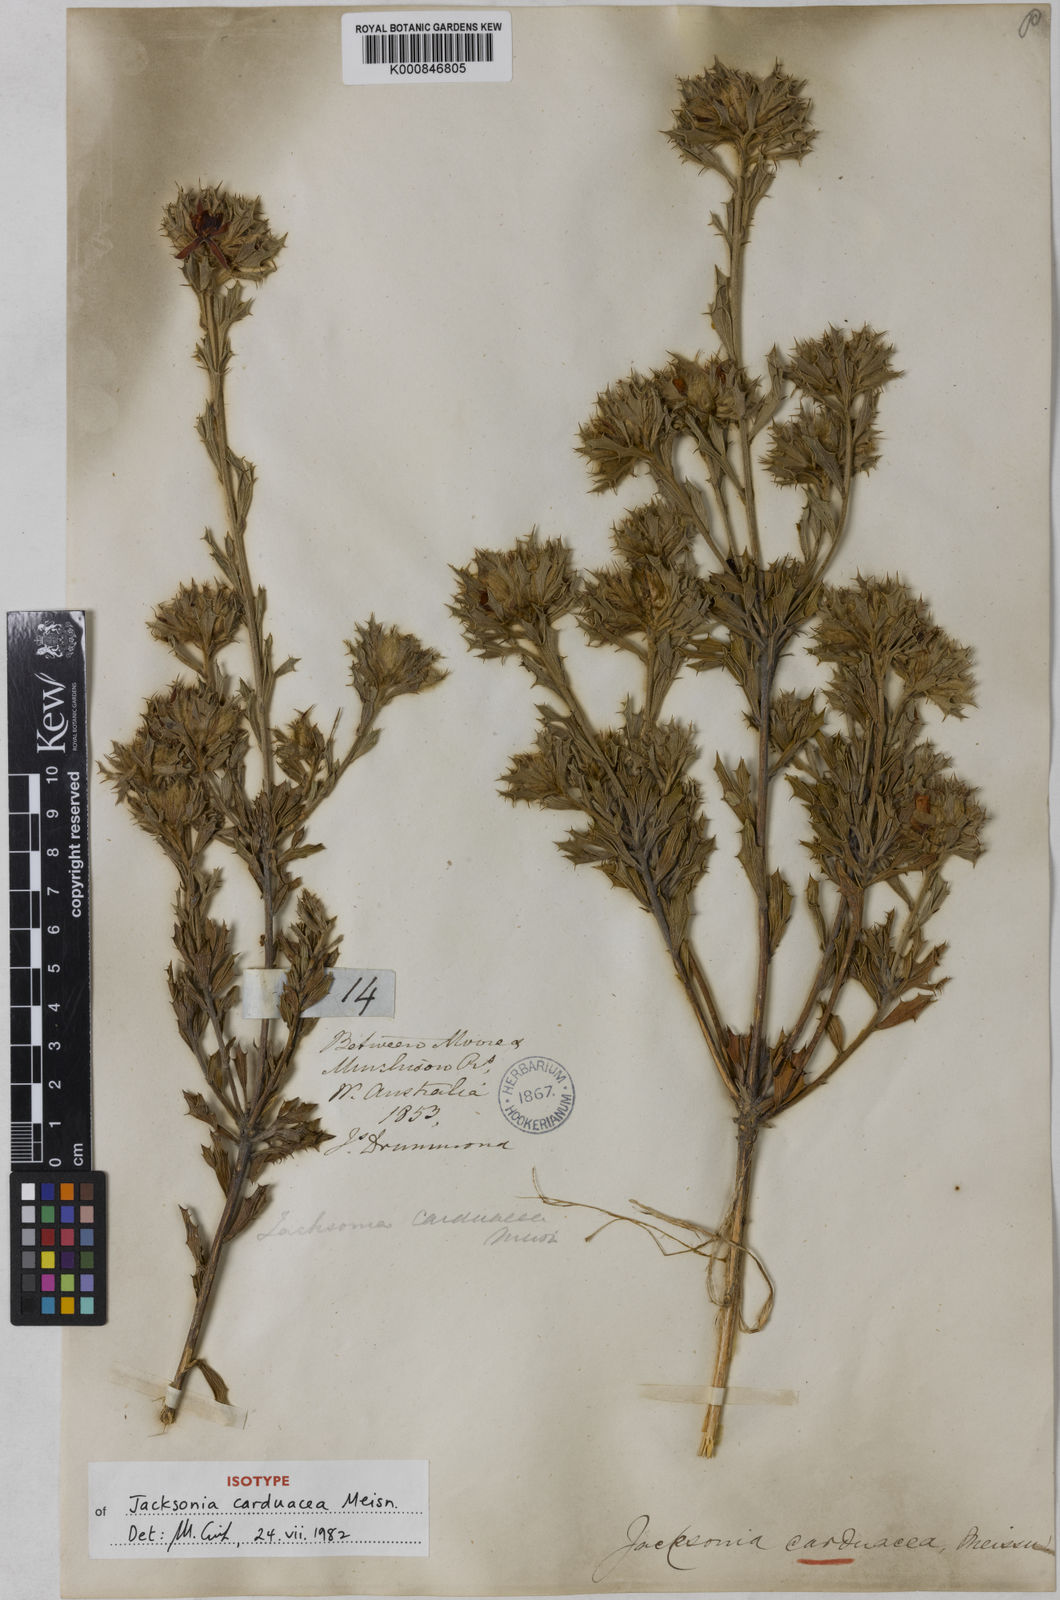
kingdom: Plantae
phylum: Tracheophyta
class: Magnoliopsida
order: Fabales
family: Fabaceae
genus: Jacksonia
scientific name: Jacksonia carduacea
